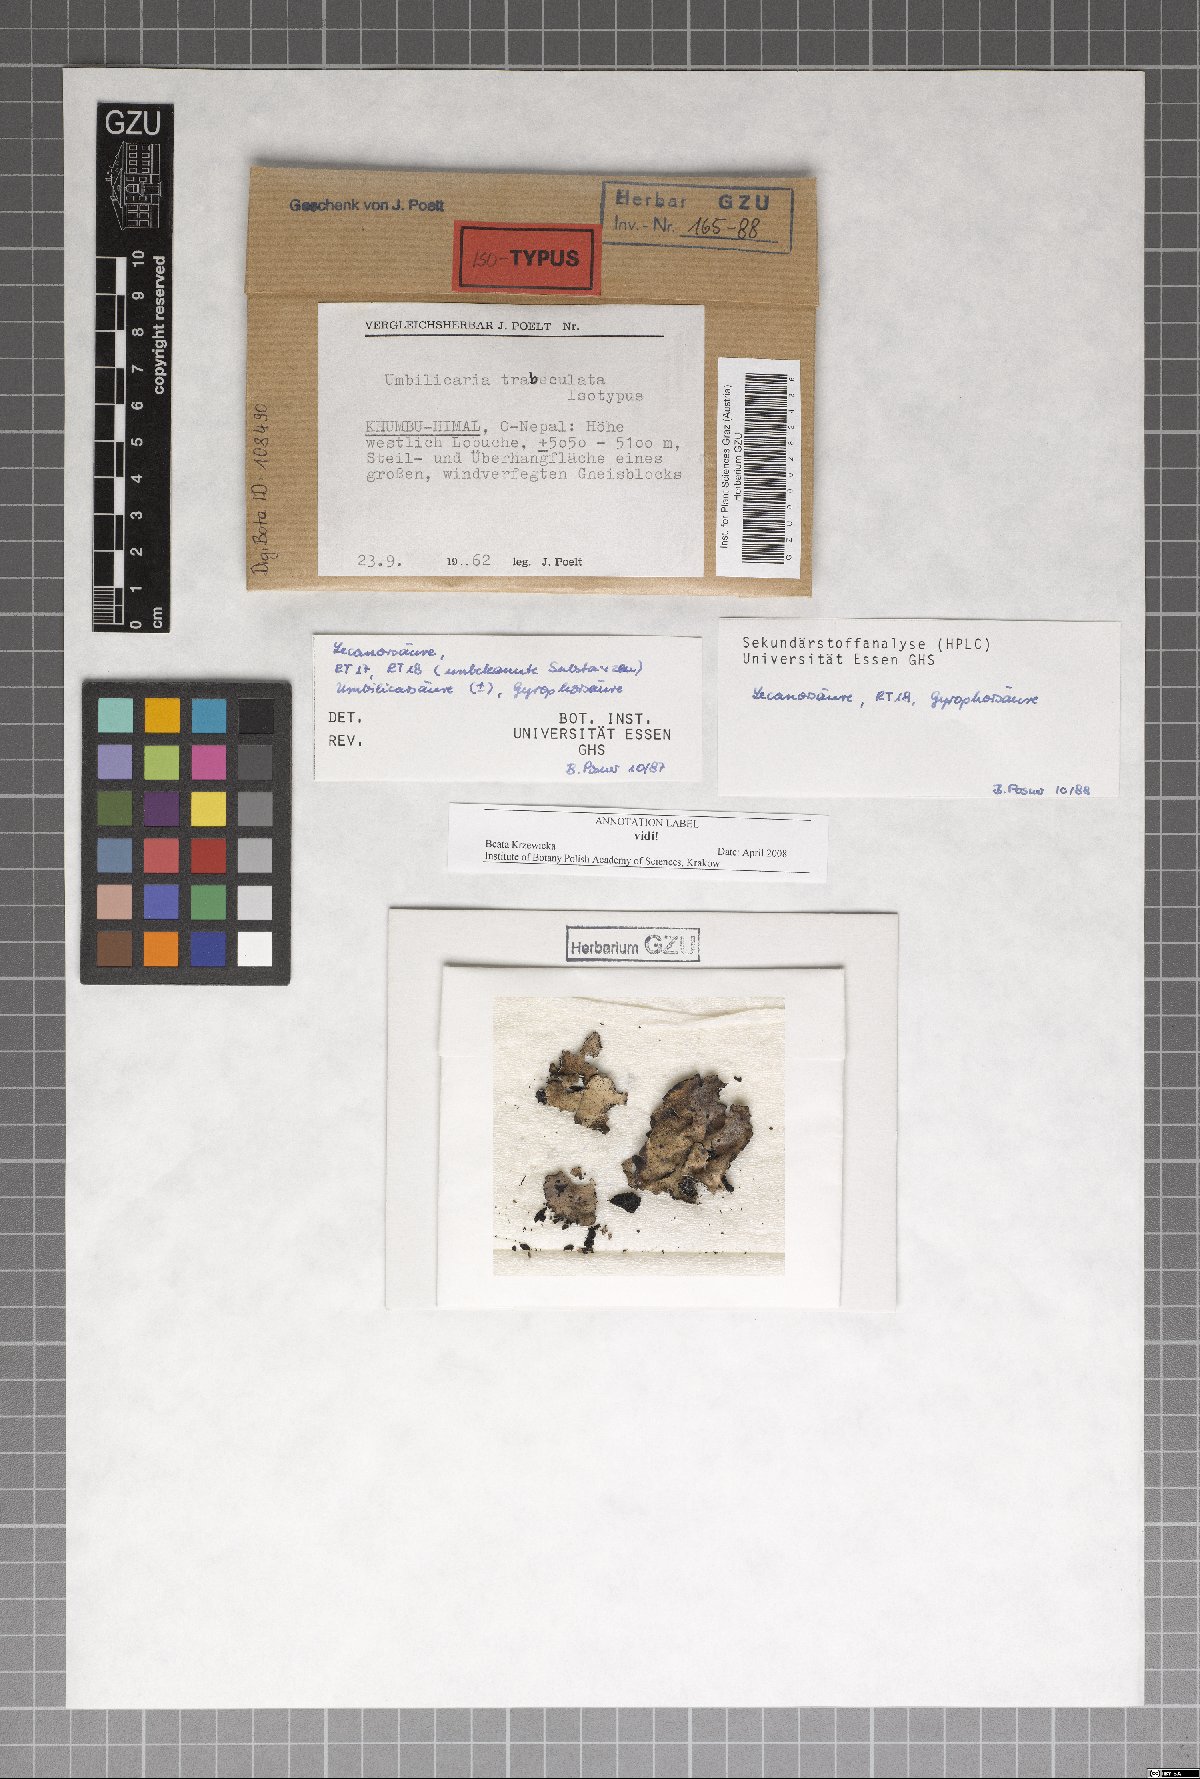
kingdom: Fungi
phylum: Ascomycota
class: Lecanoromycetes
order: Umbilicariales
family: Umbilicariaceae
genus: Umbilicaria
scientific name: Umbilicaria
